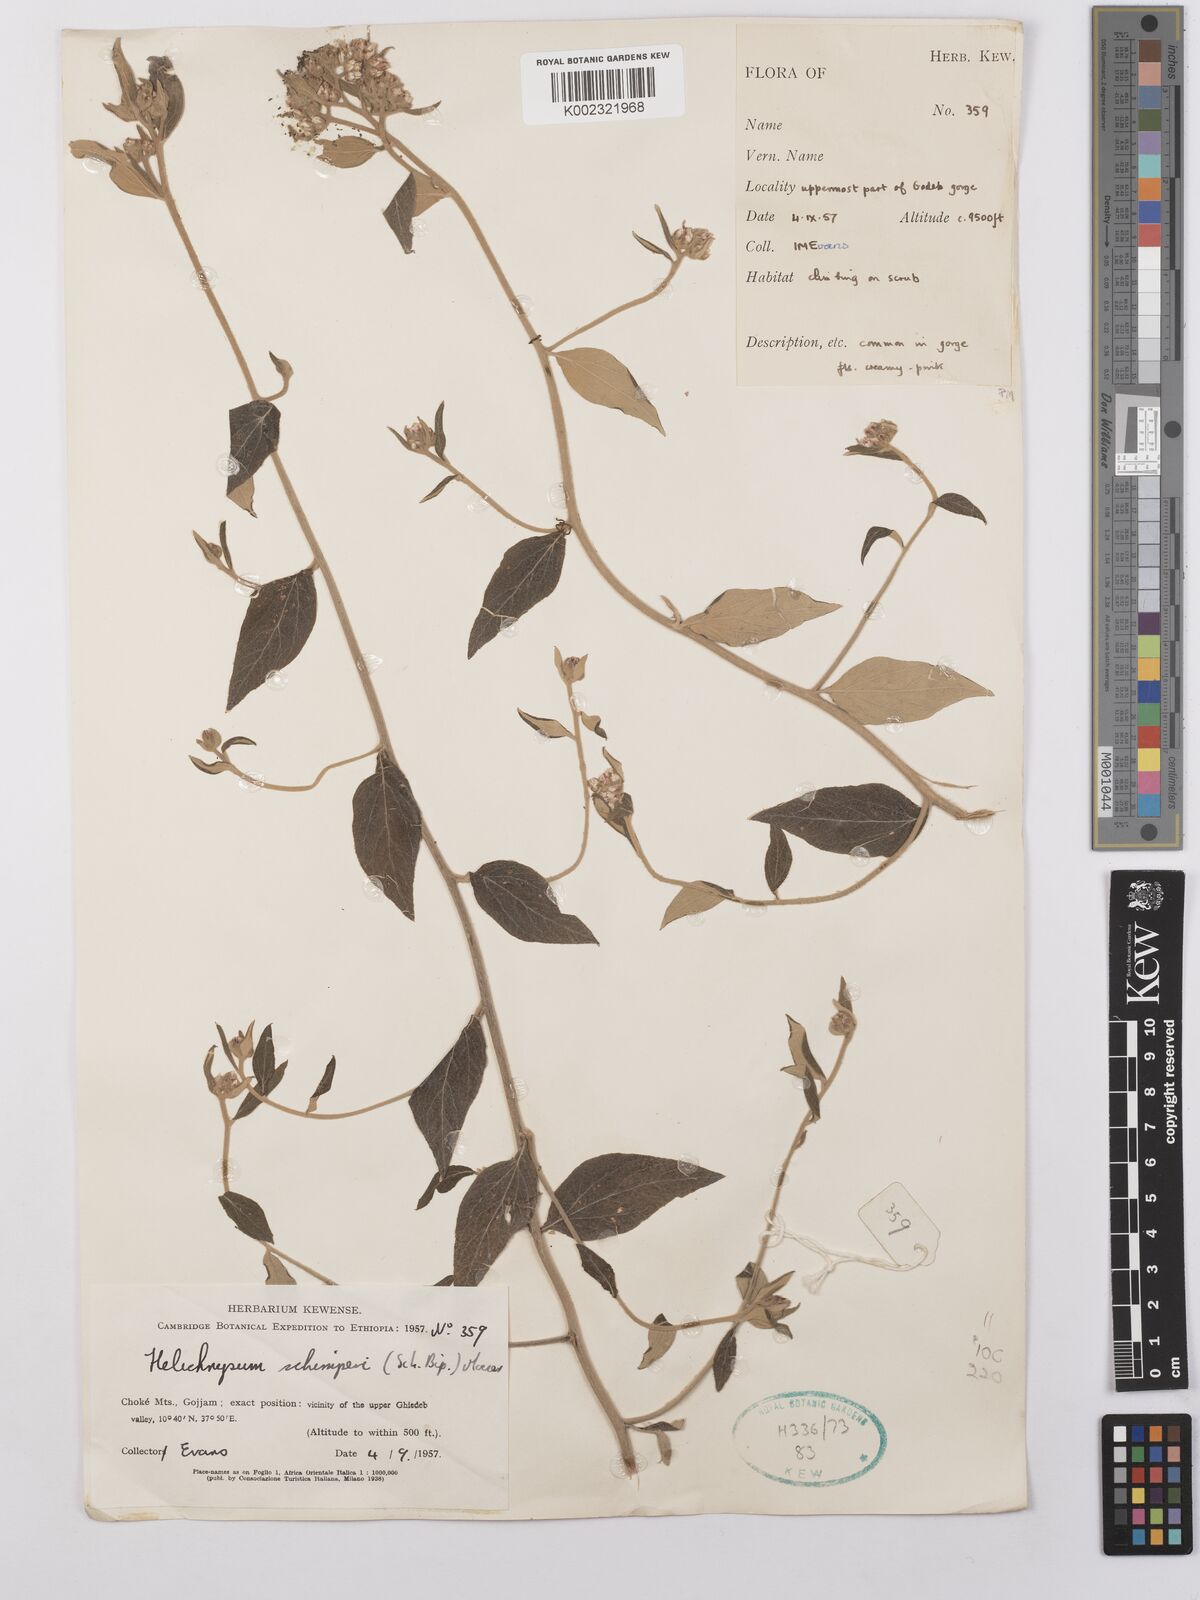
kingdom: Plantae
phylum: Tracheophyta
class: Magnoliopsida
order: Asterales
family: Asteraceae
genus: Helichrysum
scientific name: Helichrysum schimperi
